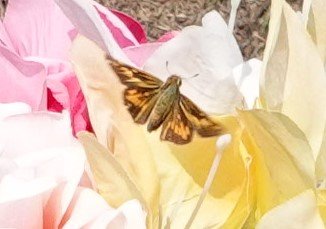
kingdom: Animalia
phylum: Arthropoda
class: Insecta
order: Lepidoptera
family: Hesperiidae
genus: Hylephila
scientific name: Hylephila phyleus
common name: Fiery Skipper
